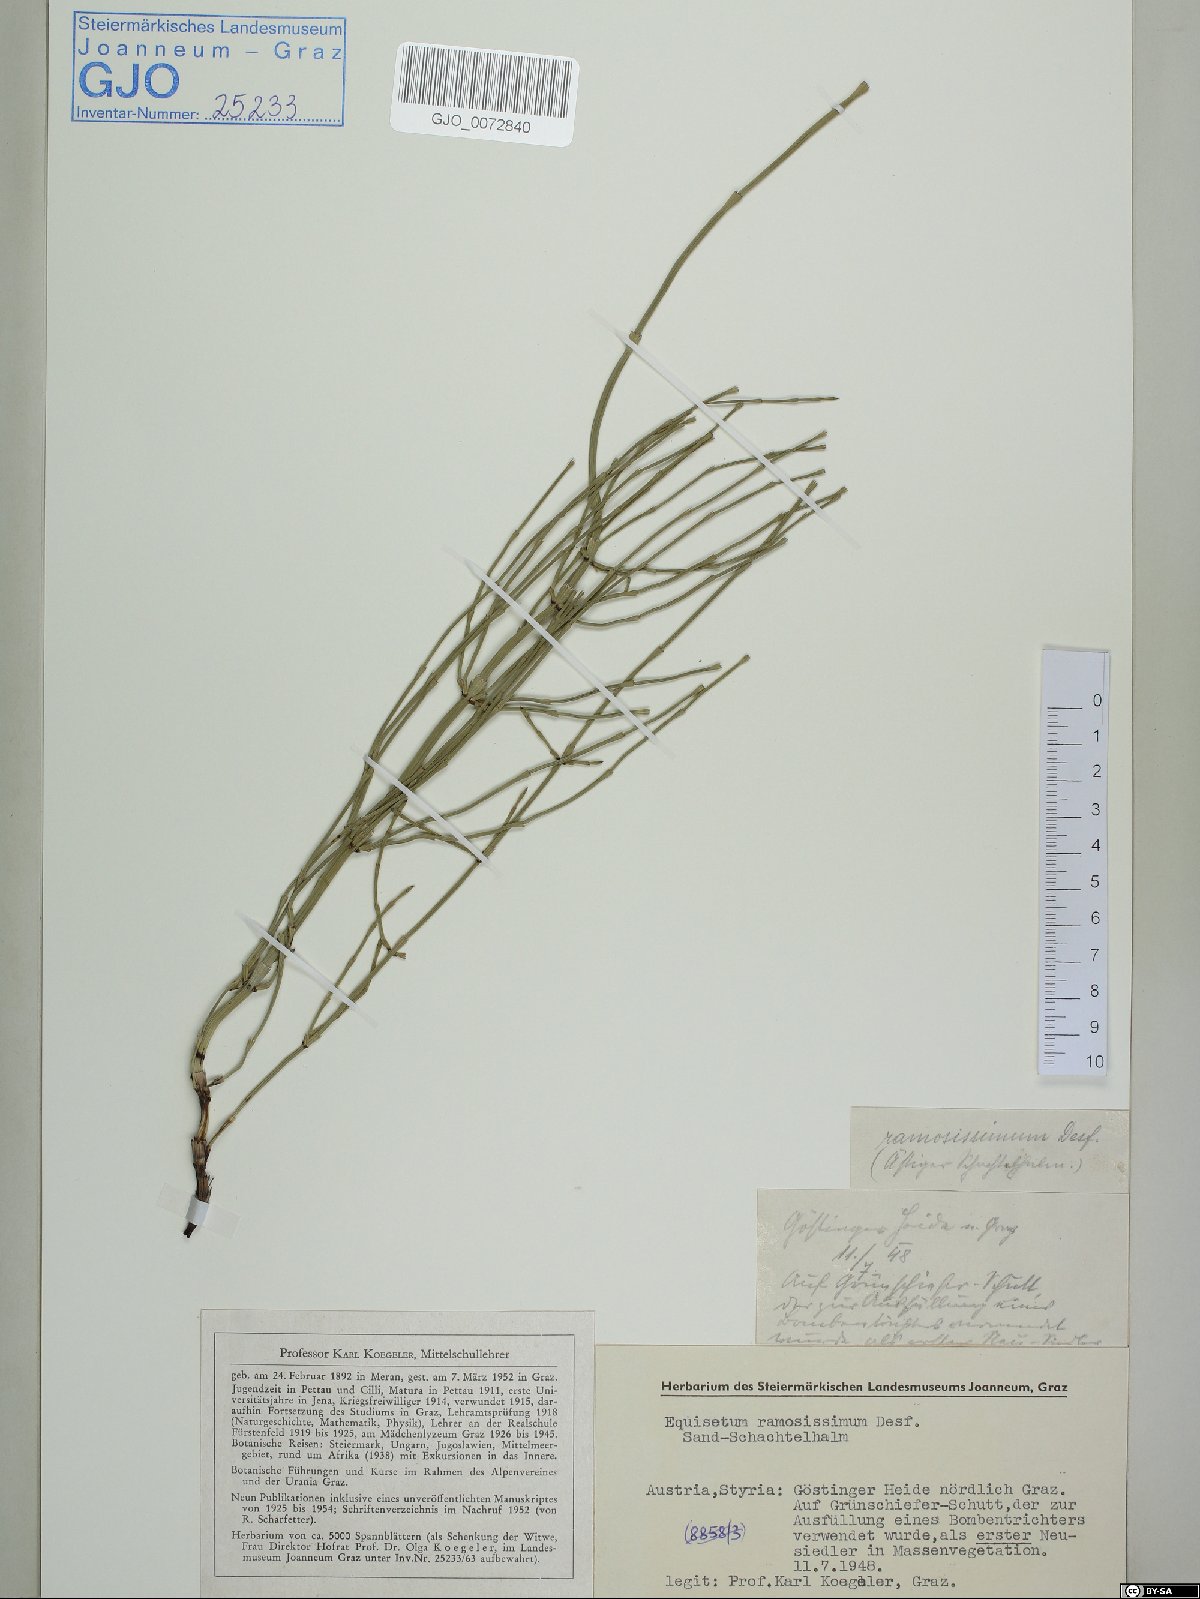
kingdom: Plantae
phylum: Tracheophyta
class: Polypodiopsida
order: Equisetales
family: Equisetaceae
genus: Equisetum
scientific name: Equisetum ramosissimum
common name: Branched horsetail
